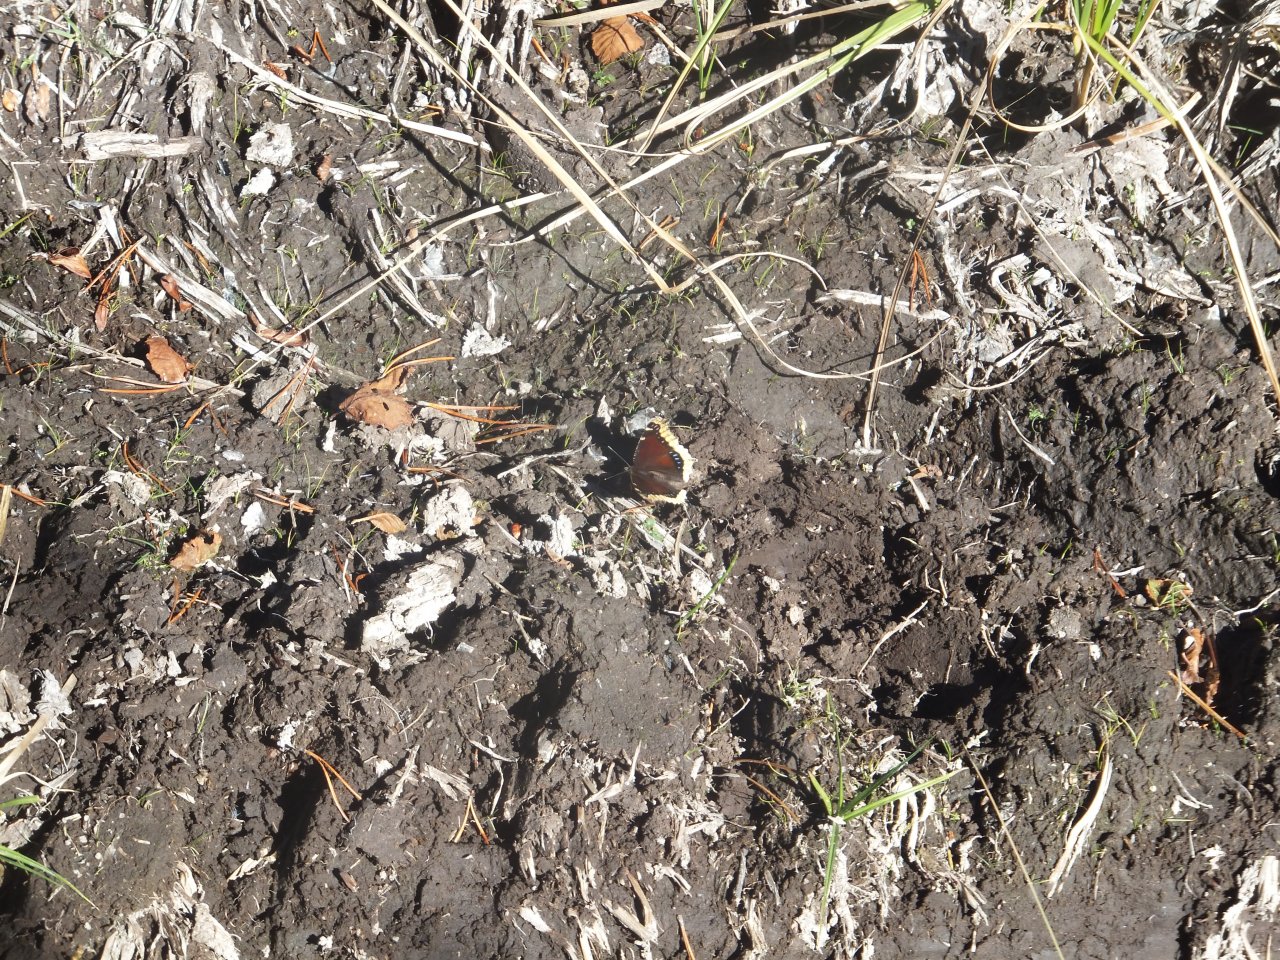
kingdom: Animalia
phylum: Arthropoda
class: Insecta
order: Lepidoptera
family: Nymphalidae
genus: Nymphalis
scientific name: Nymphalis antiopa
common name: Mourning Cloak
